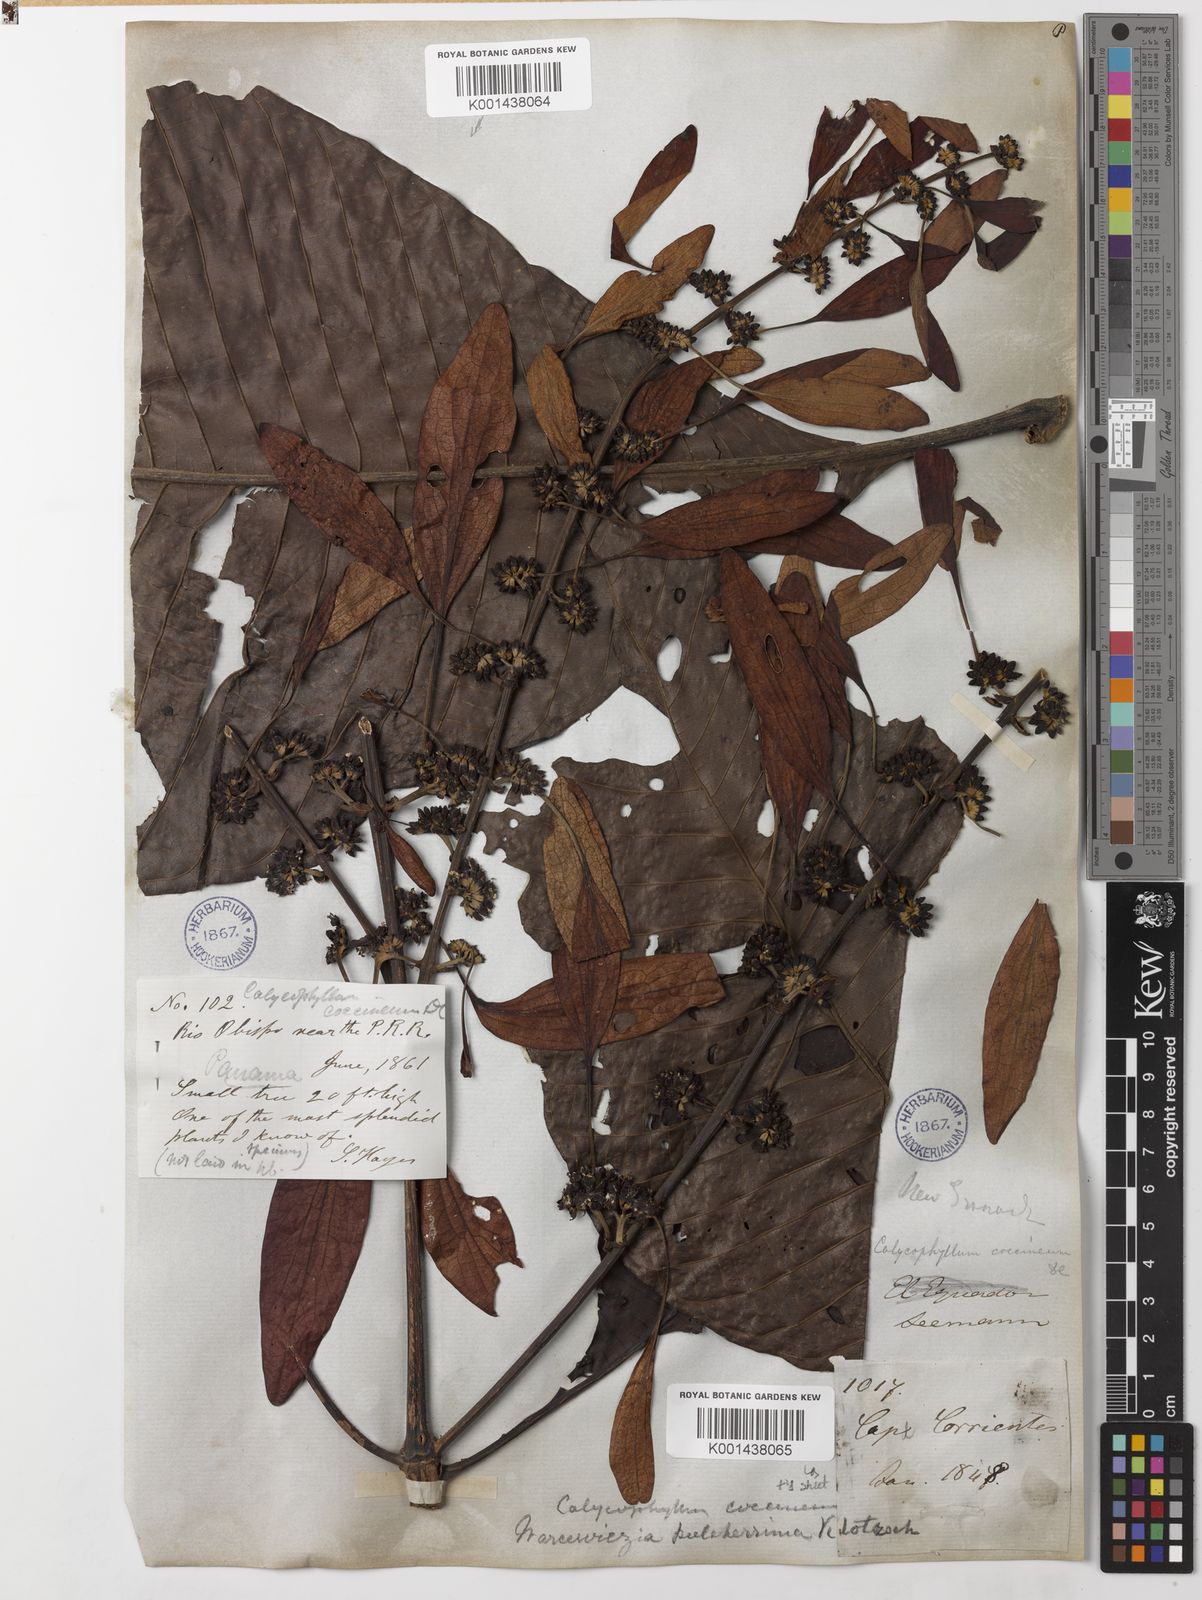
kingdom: Plantae
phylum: Tracheophyta
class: Magnoliopsida
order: Gentianales
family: Rubiaceae
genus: Warszewiczia
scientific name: Warszewiczia coccinea
